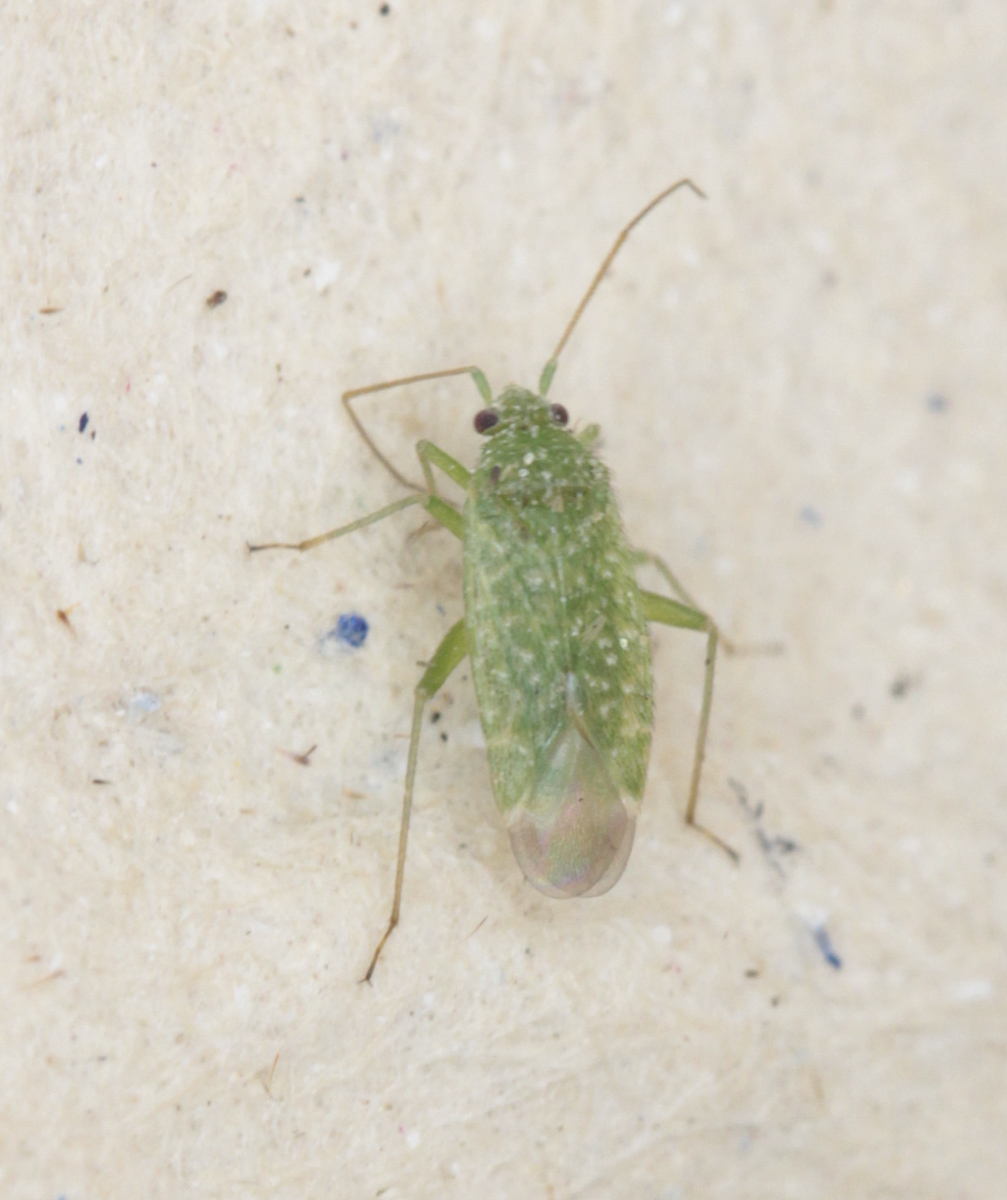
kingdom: Animalia
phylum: Arthropoda
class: Insecta
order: Hemiptera
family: Miridae
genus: Neolygus
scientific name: Neolygus contaminatus
